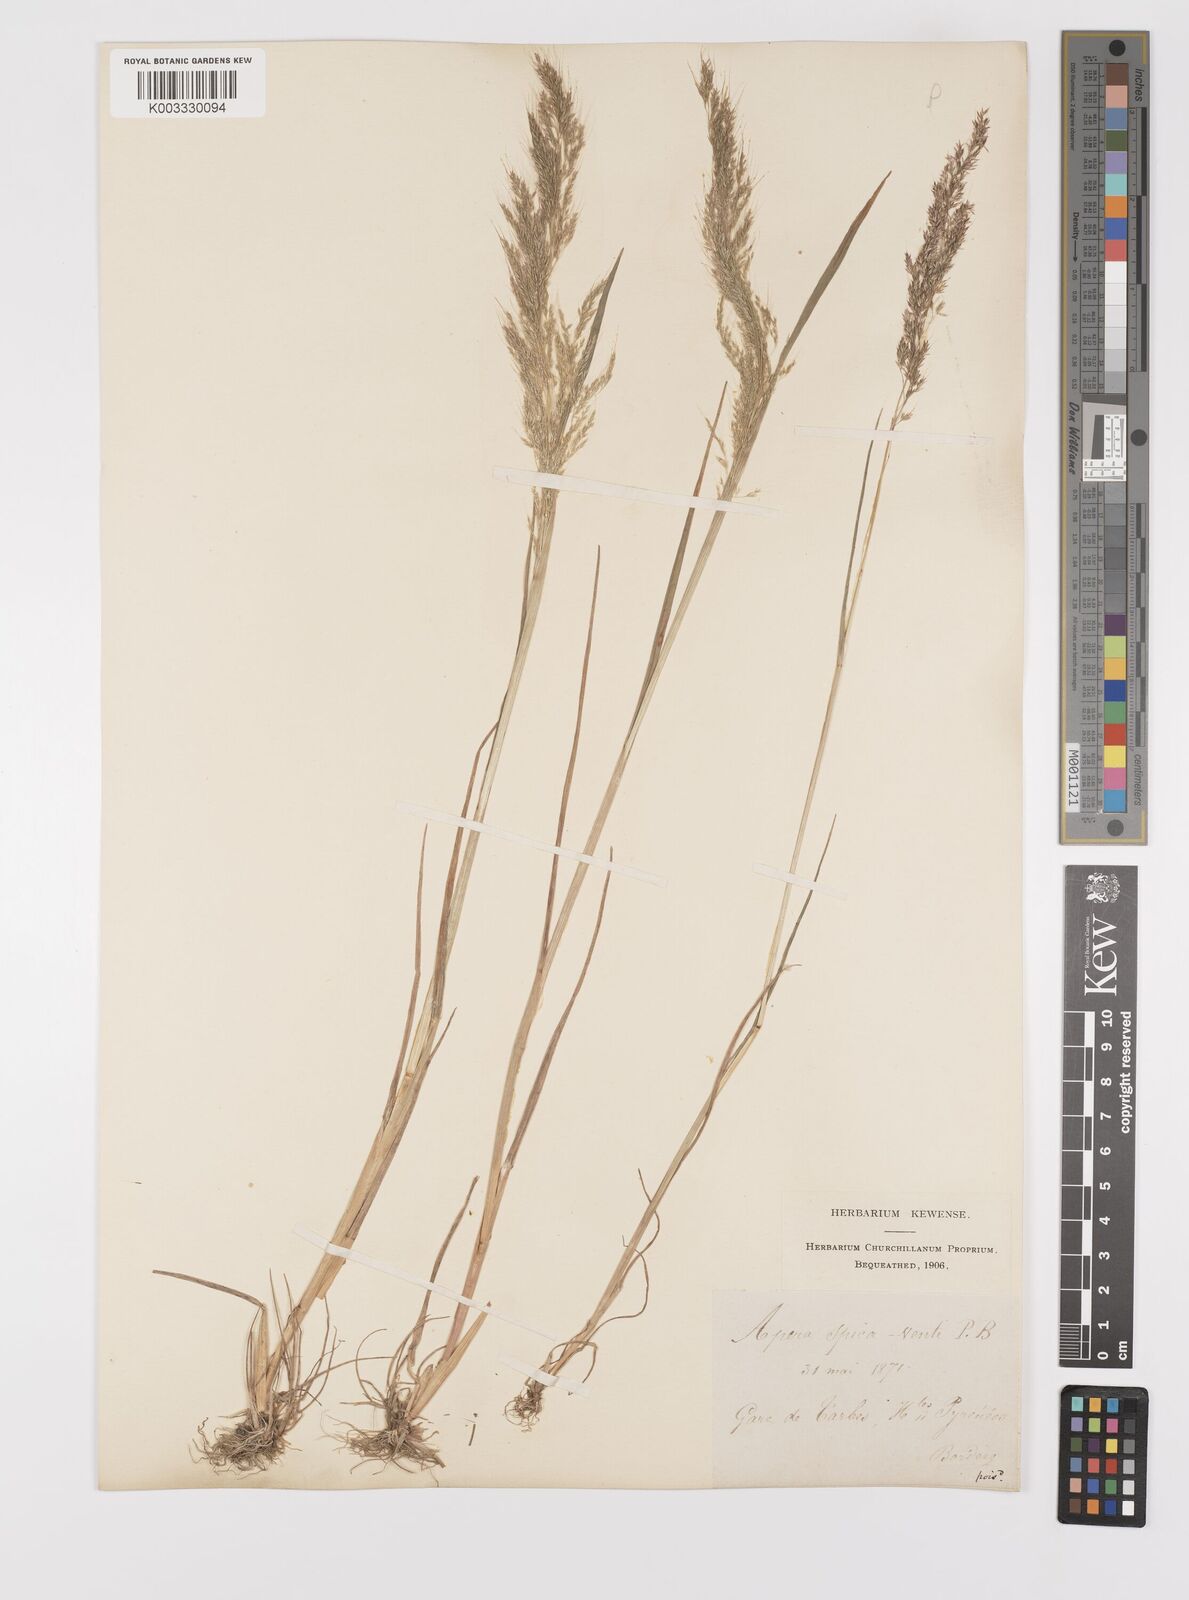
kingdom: Plantae
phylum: Tracheophyta
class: Liliopsida
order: Poales
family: Poaceae
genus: Apera
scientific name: Apera spica-venti
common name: Loose silky-bent
